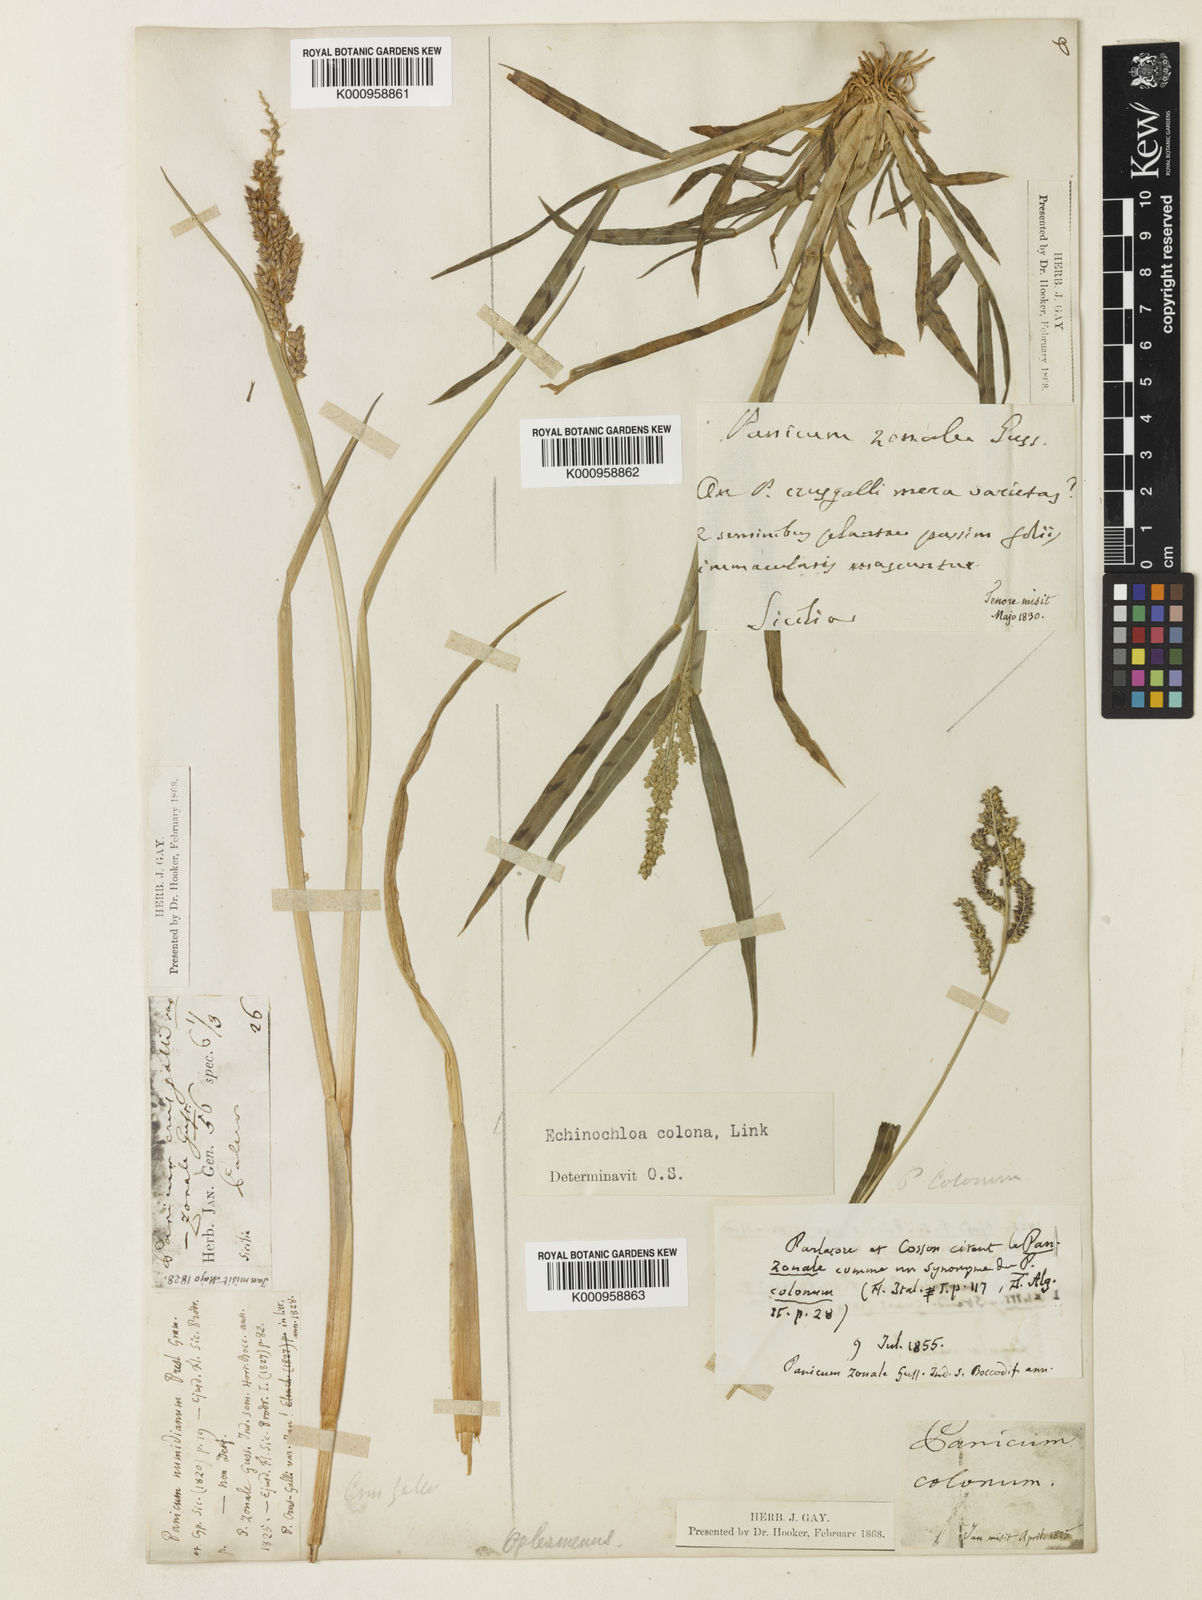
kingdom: Plantae
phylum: Tracheophyta
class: Liliopsida
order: Poales
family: Poaceae
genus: Echinochloa
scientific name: Echinochloa colonum
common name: Jungle rice
